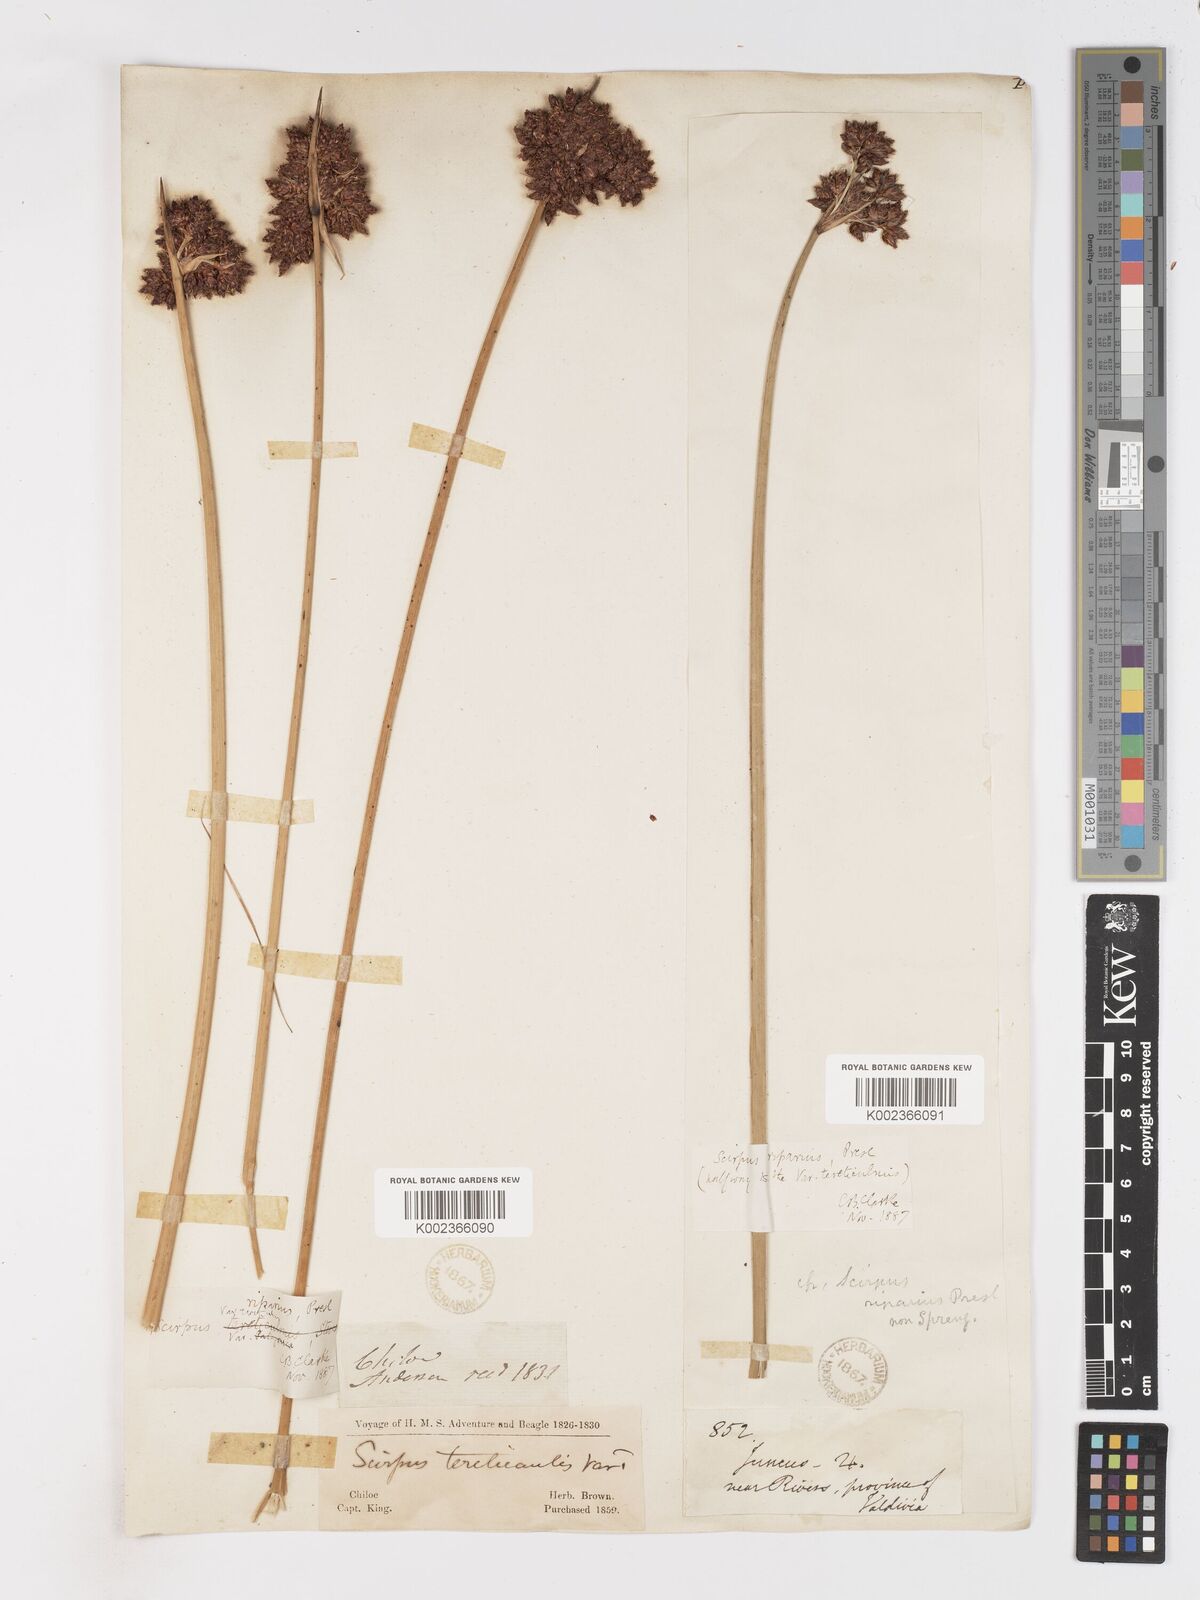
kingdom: Plantae
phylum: Tracheophyta
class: Liliopsida
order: Poales
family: Cyperaceae
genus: Schoenoplectus
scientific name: Schoenoplectus californicus
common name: California bulrush
